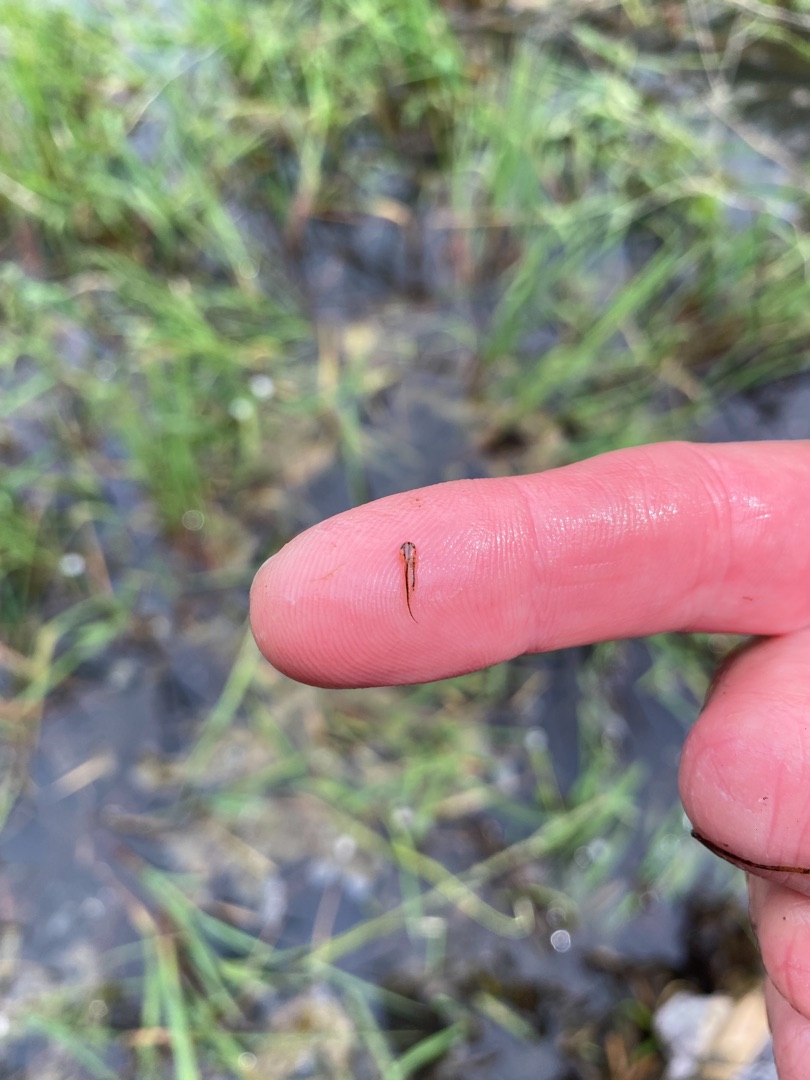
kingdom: Animalia
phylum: Chordata
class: Amphibia
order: Caudata
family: Salamandridae
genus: Triturus
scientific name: Triturus cristatus
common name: Stor vandsalamander
